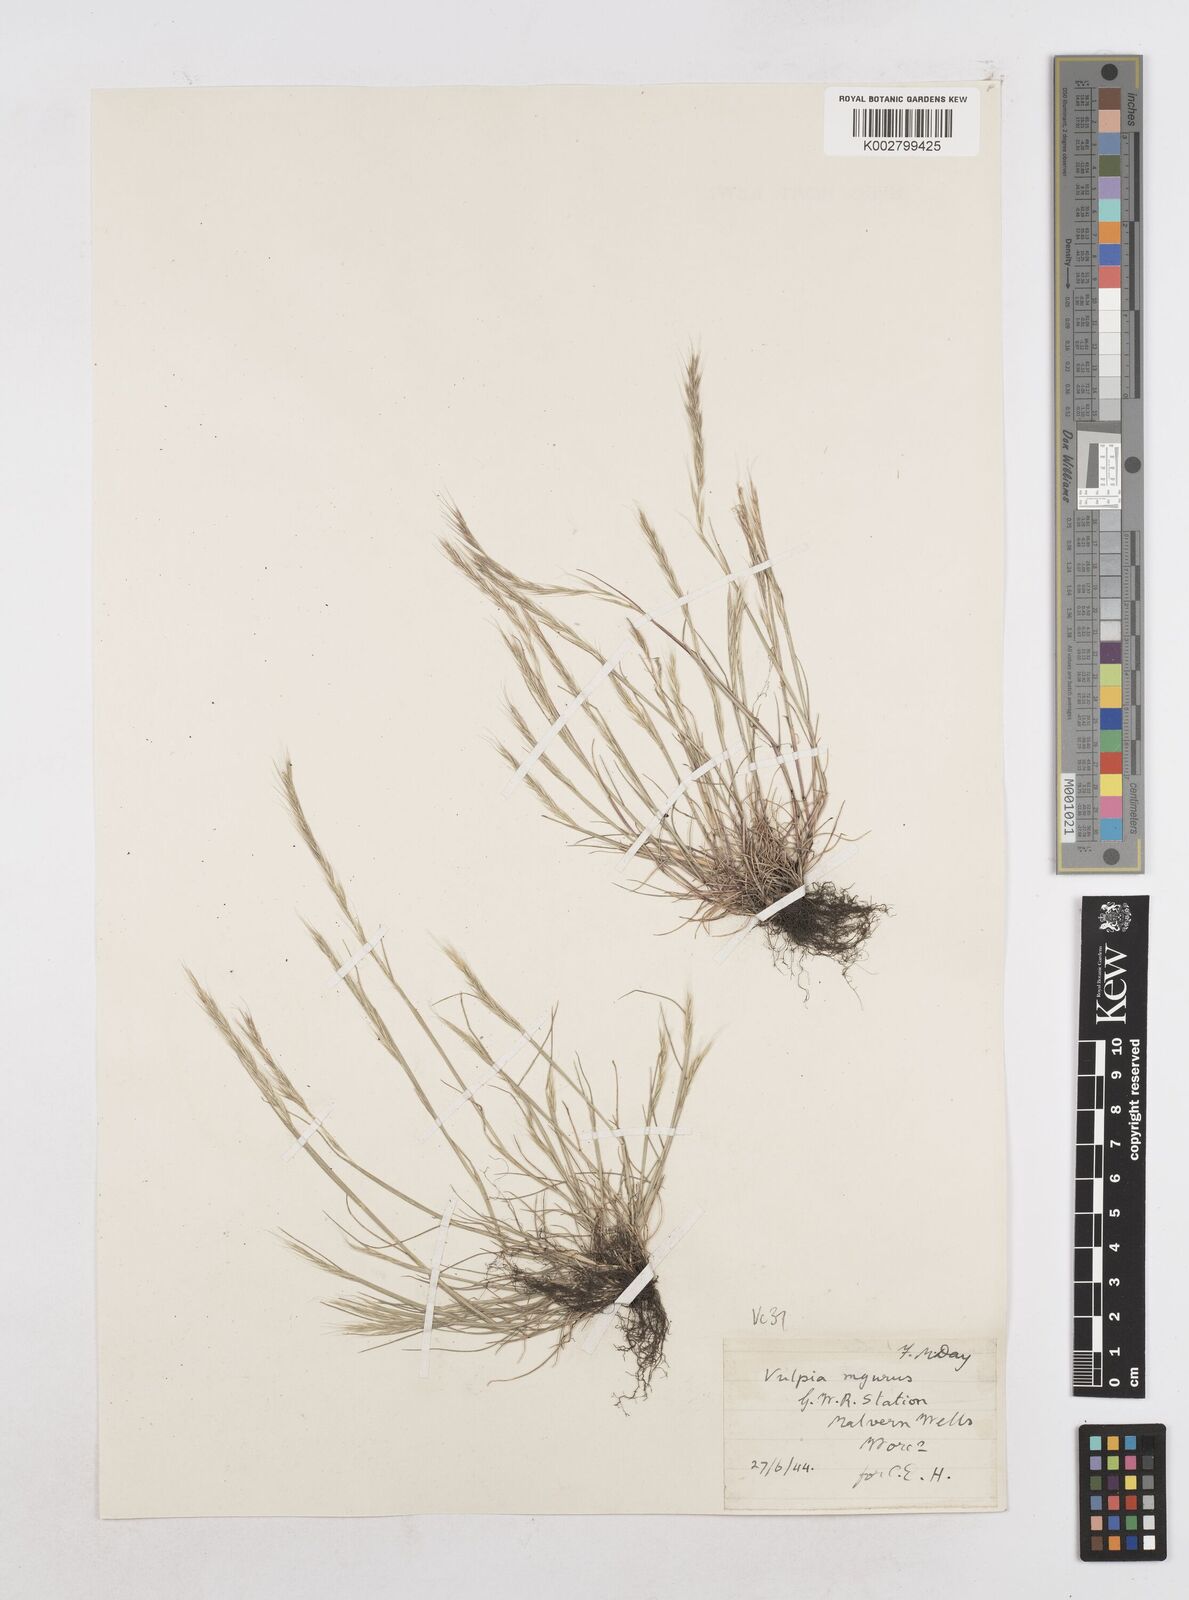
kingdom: Plantae
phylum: Tracheophyta
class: Liliopsida
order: Poales
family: Poaceae
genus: Festuca
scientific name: Festuca myuros
